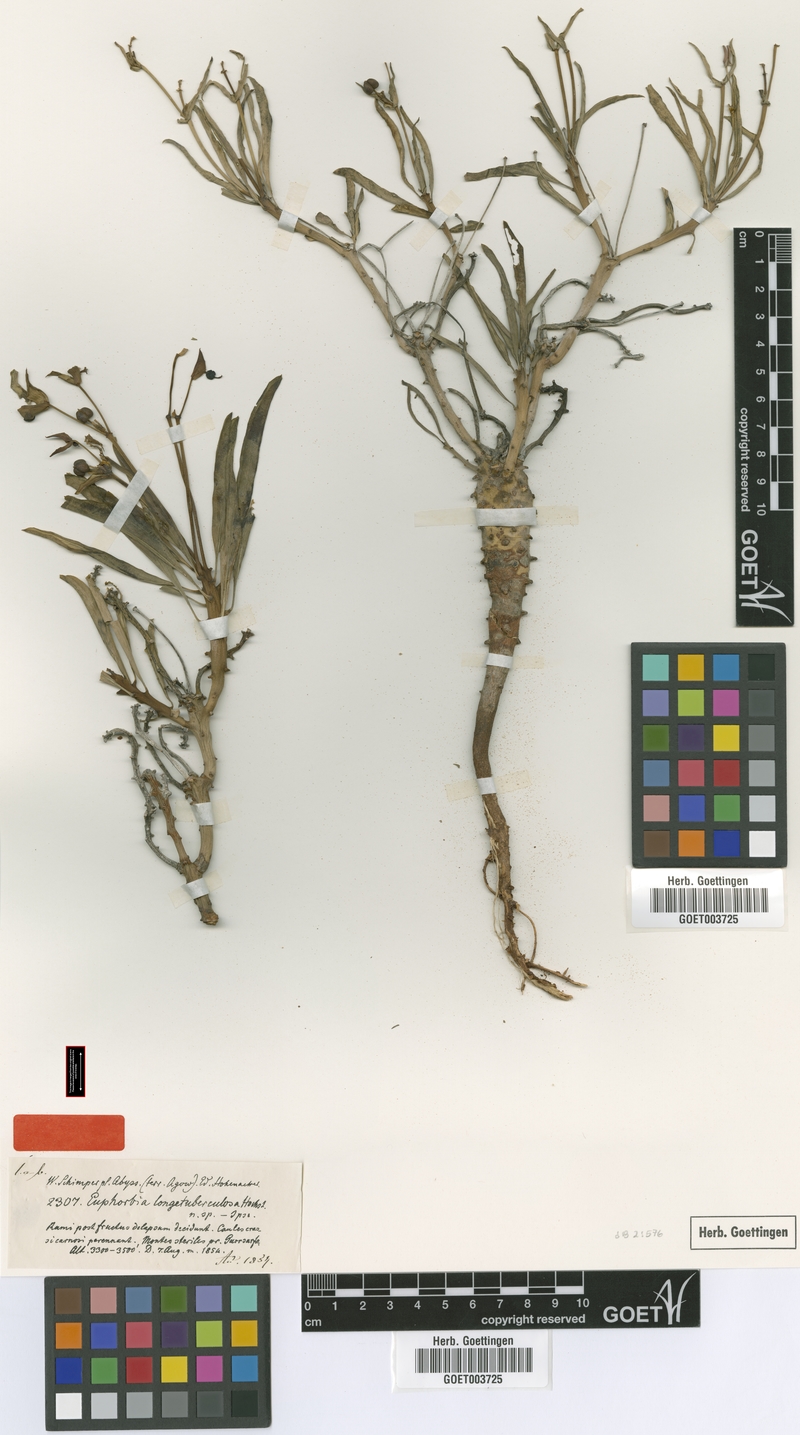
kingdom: Plantae
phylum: Tracheophyta
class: Magnoliopsida
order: Malpighiales
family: Euphorbiaceae
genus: Euphorbia
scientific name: Euphorbia longetuberculosa
